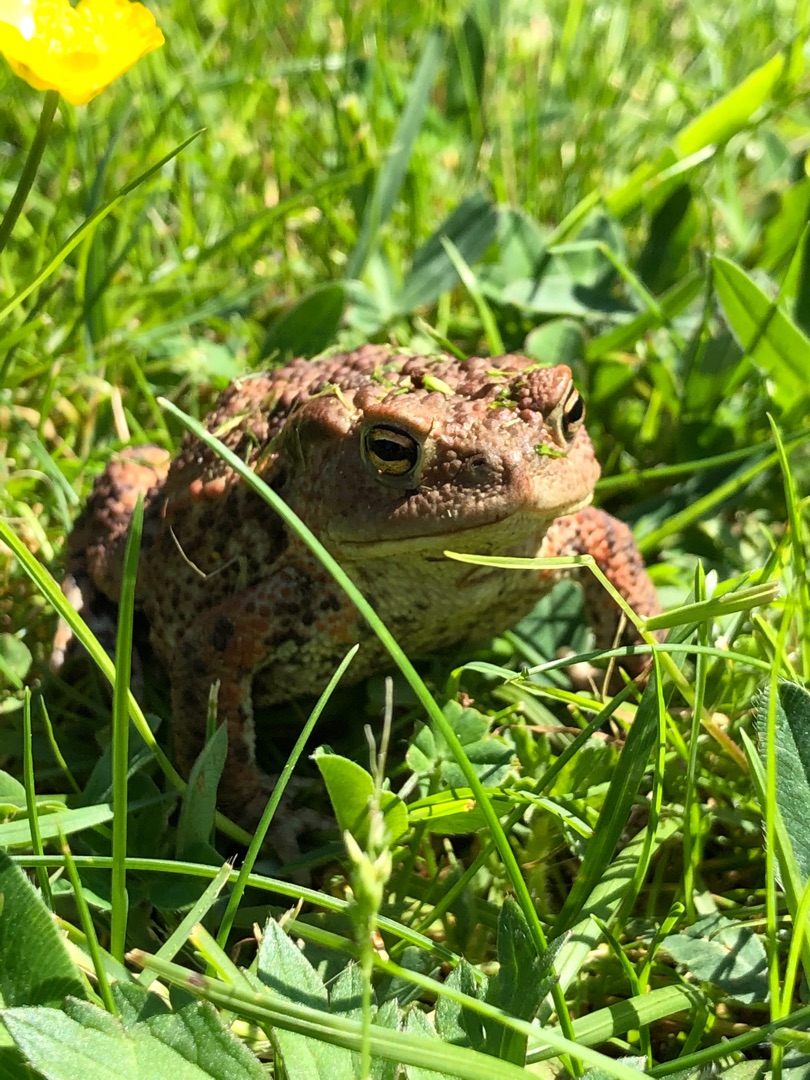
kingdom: Animalia
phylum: Chordata
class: Amphibia
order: Anura
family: Bufonidae
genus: Bufo
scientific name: Bufo bufo
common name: Skrubtudse
